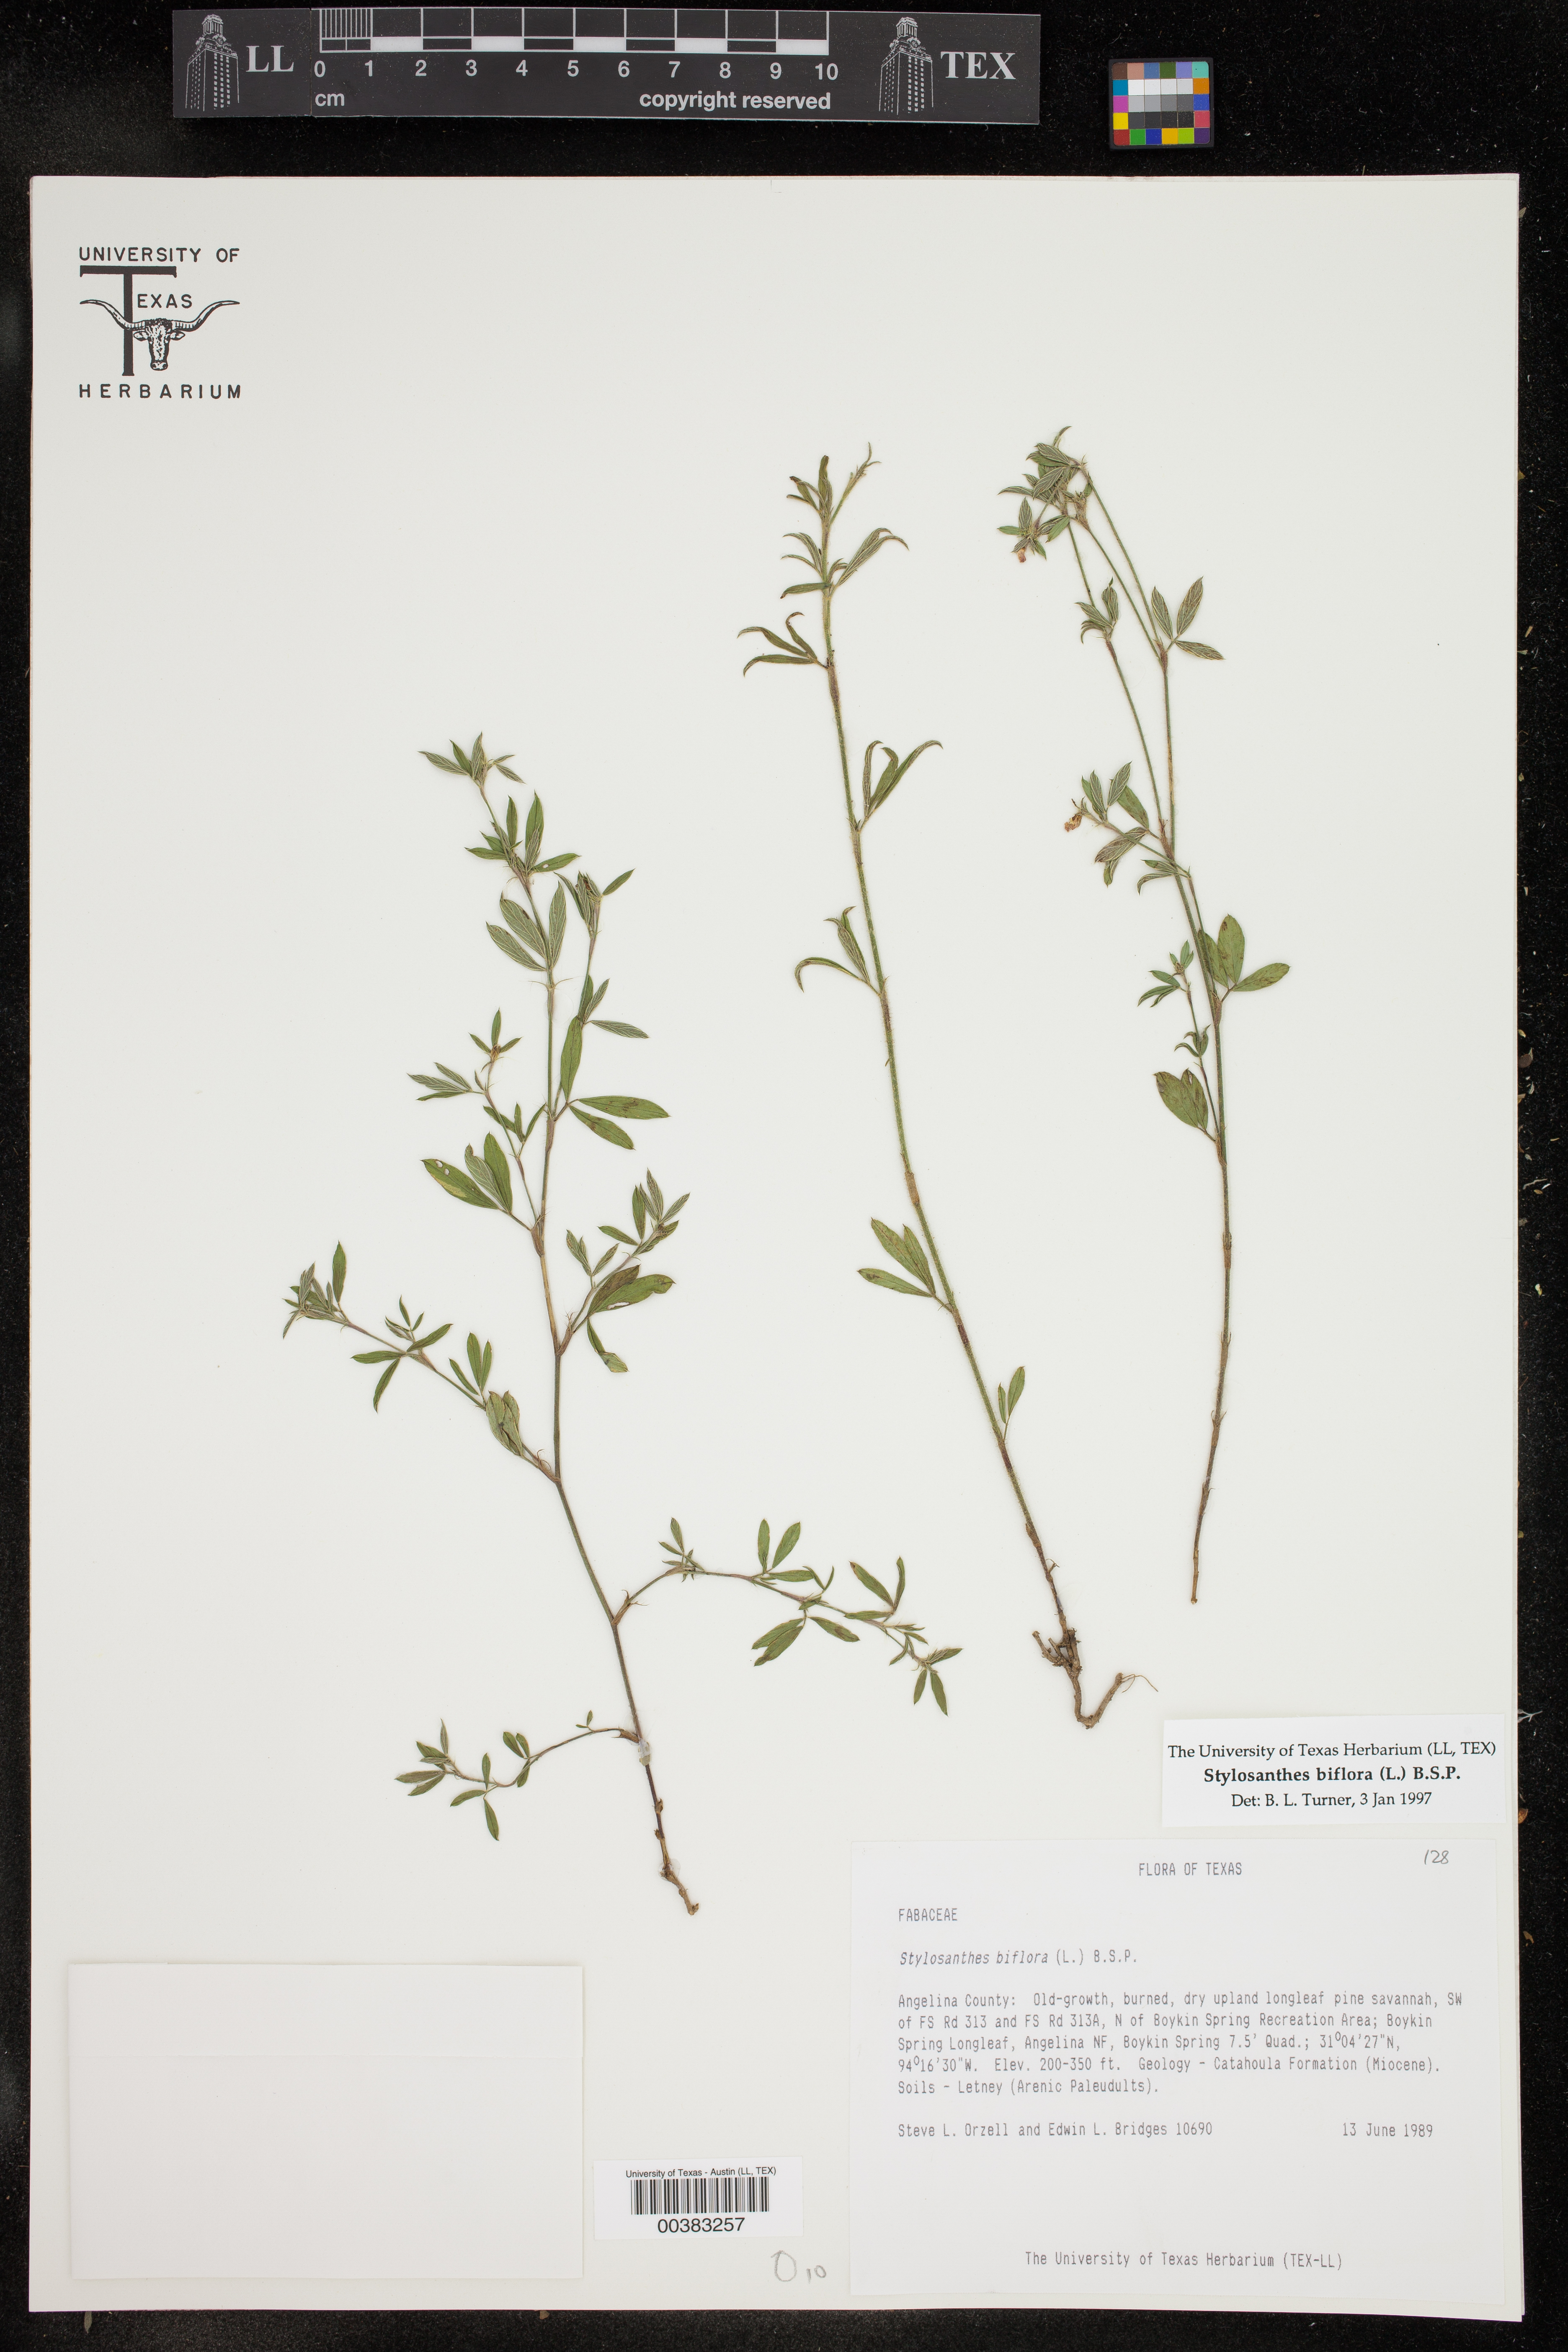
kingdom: Plantae
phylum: Tracheophyta
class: Magnoliopsida
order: Fabales
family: Fabaceae
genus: Stylosanthes
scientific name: Stylosanthes biflora
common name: Two-flower pencil-flower
